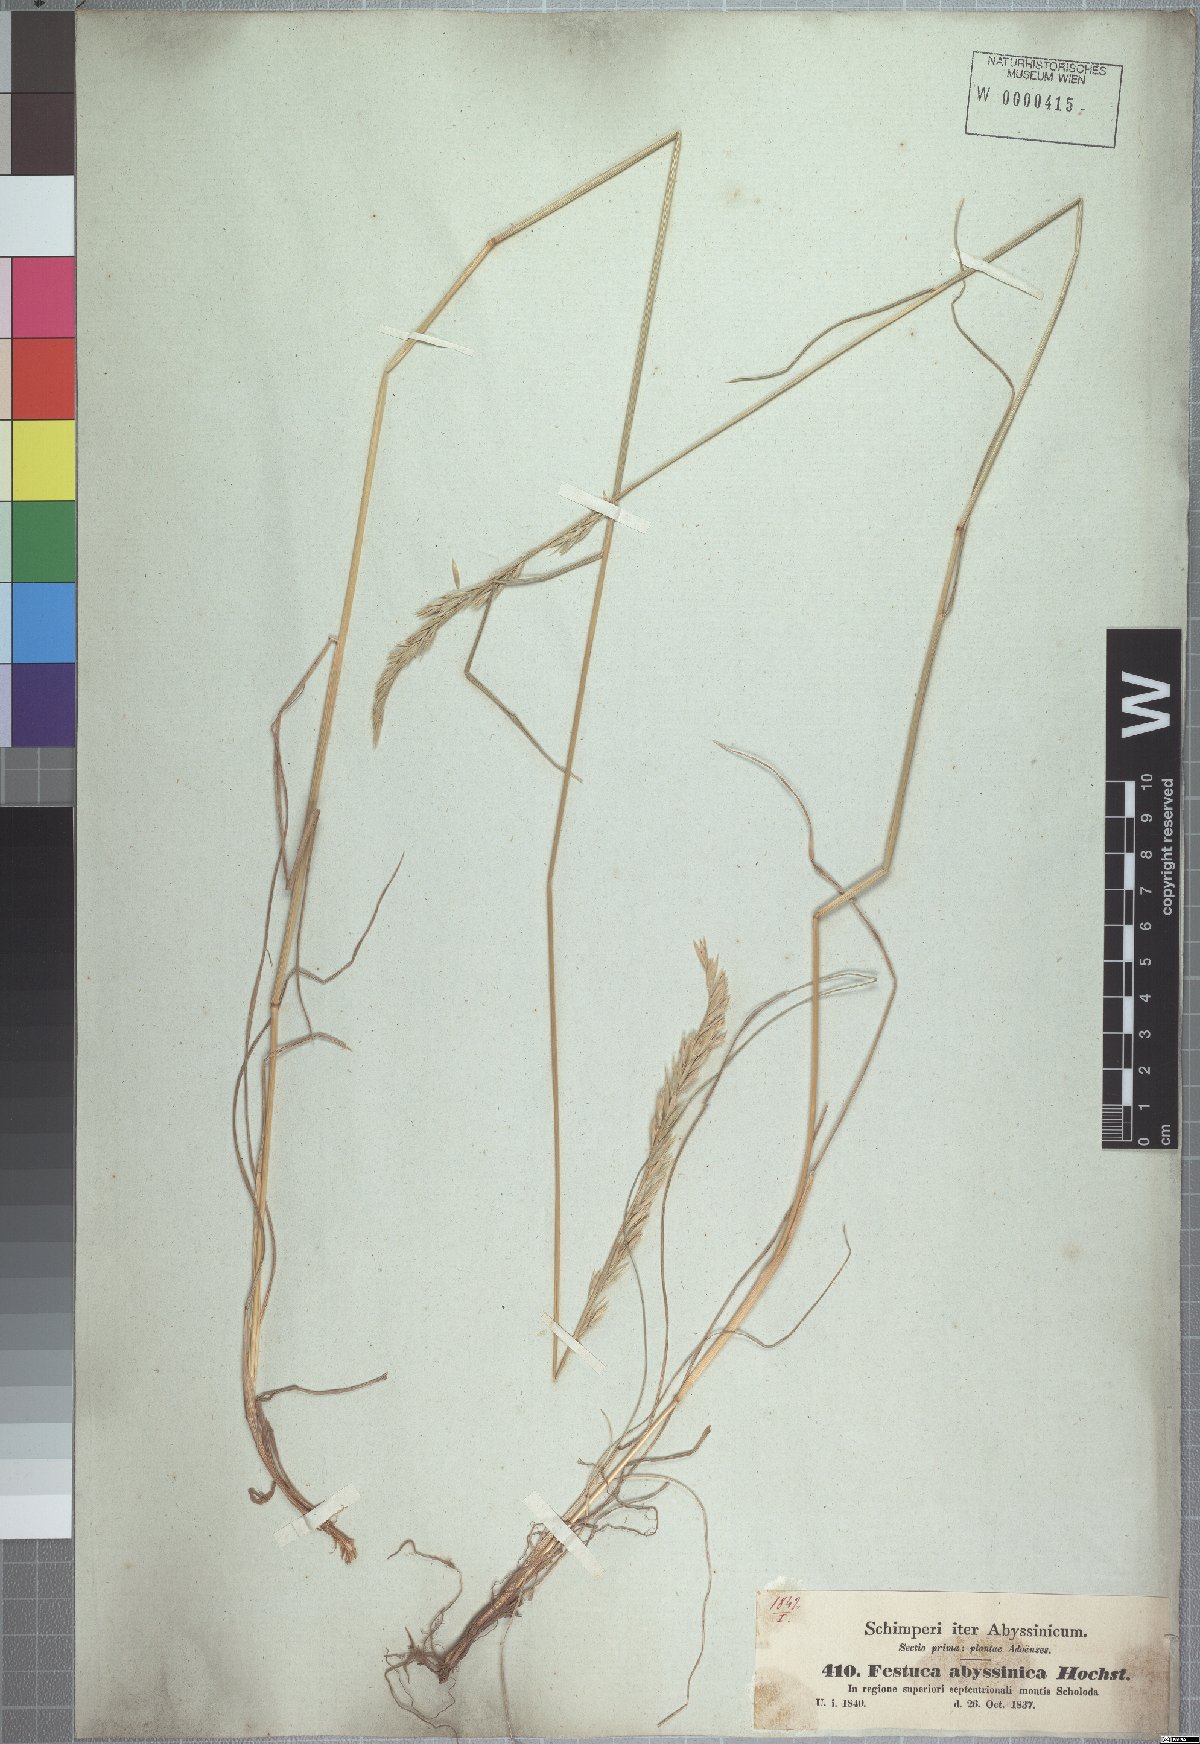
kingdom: Plantae
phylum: Tracheophyta
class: Liliopsida
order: Poales
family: Poaceae
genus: Festuca
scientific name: Festuca abyssinica
